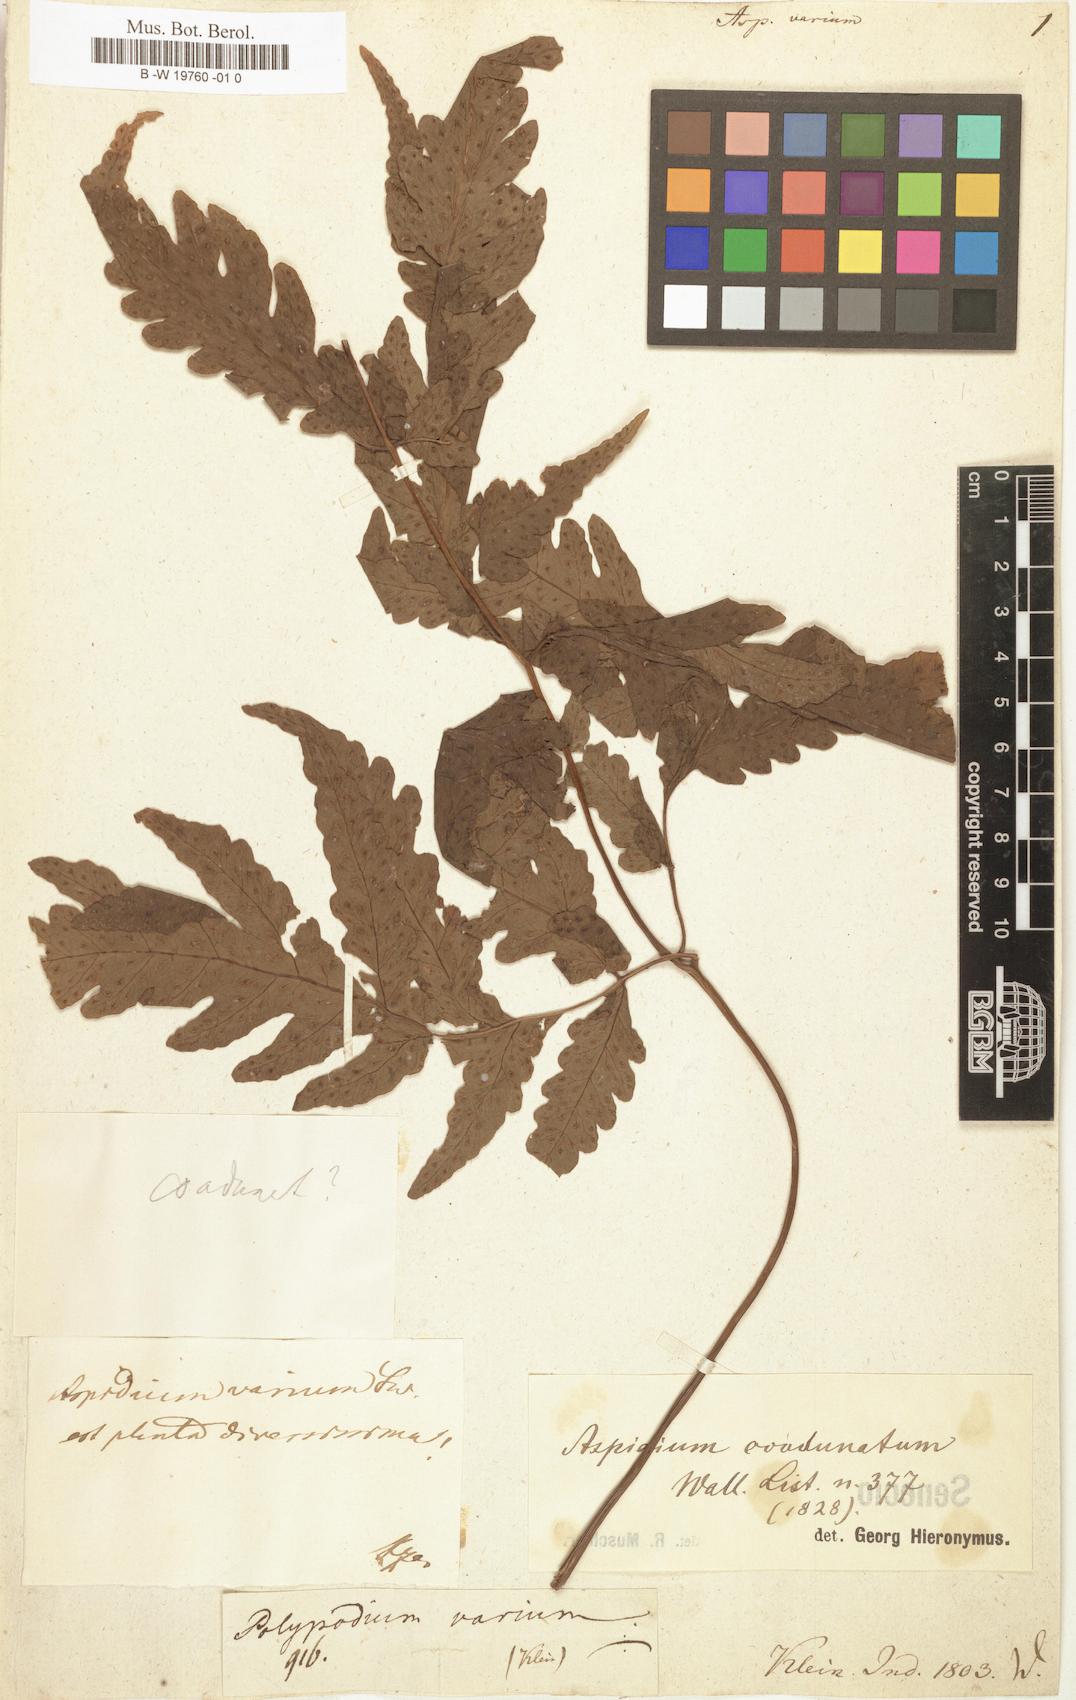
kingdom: Plantae
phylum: Tracheophyta
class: Polypodiopsida
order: Polypodiales
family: Dryopteridaceae
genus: Dryopteris
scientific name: Dryopteris varia
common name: Japanese holly fern
